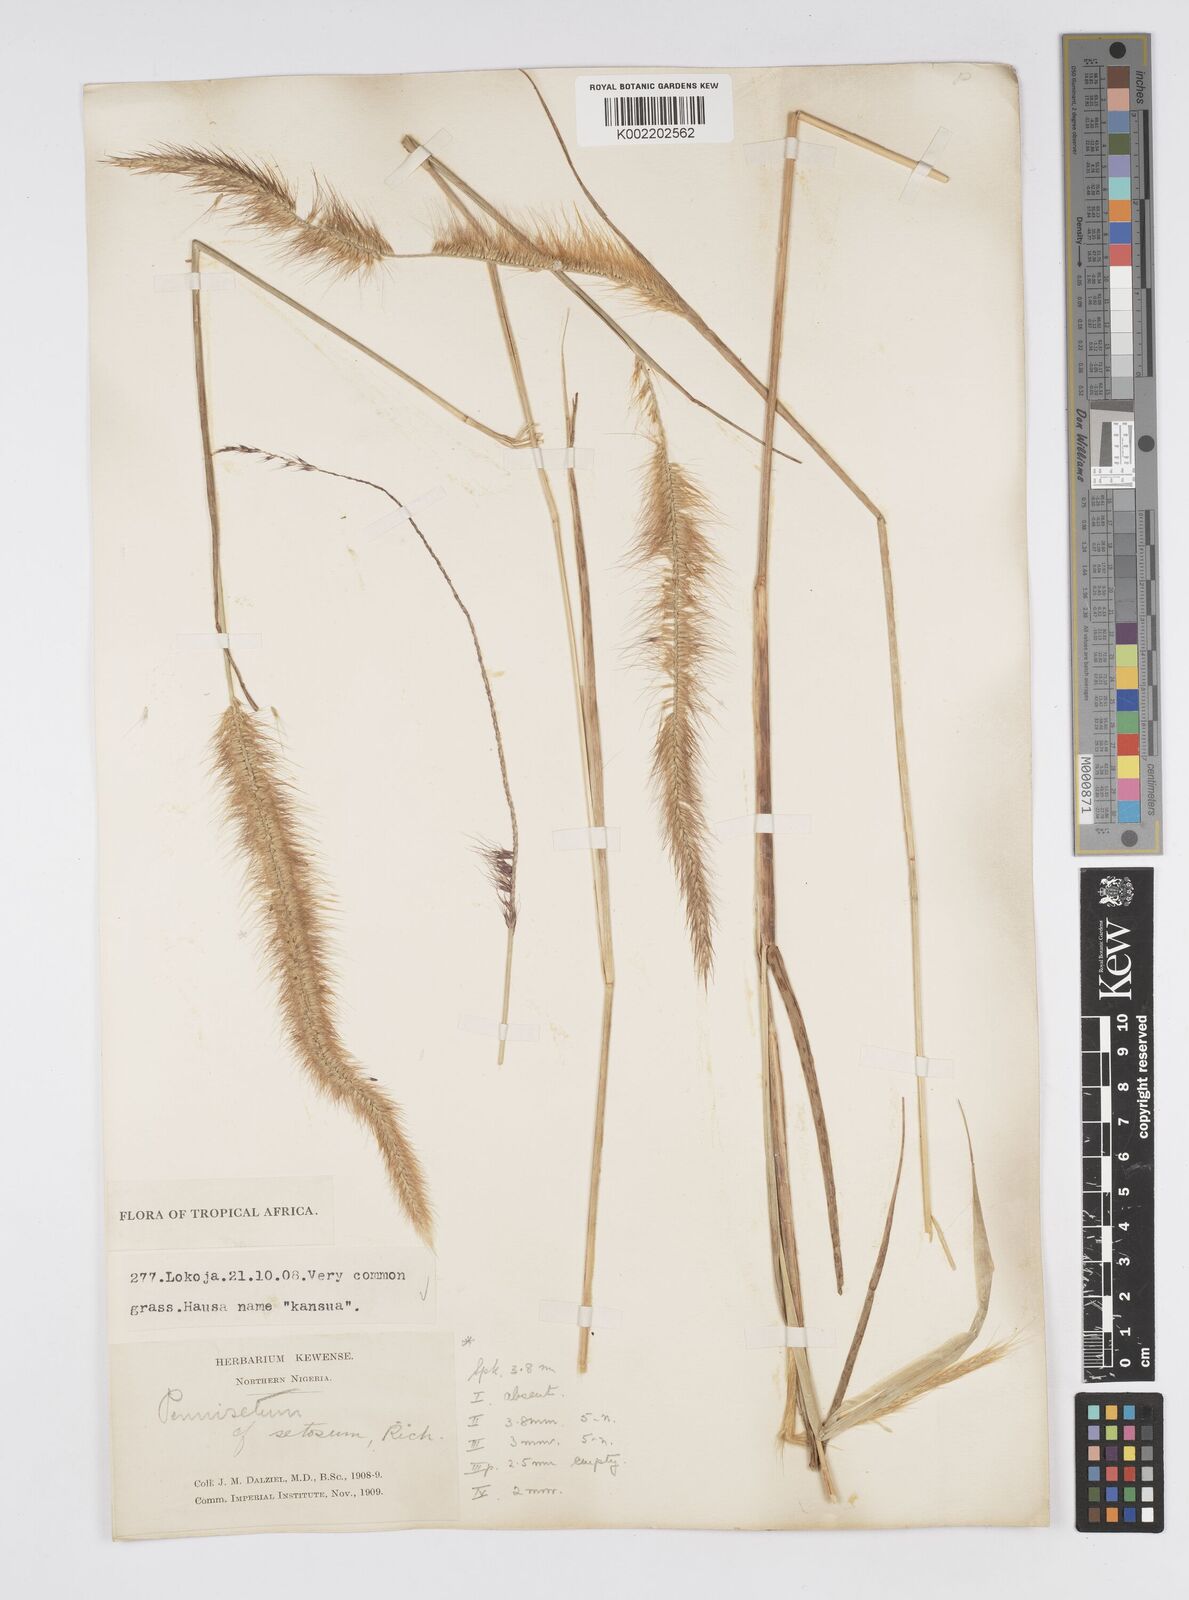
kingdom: Plantae
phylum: Tracheophyta
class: Liliopsida
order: Poales
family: Poaceae
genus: Setaria
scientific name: Setaria parviflora
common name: Knotroot bristle-grass
